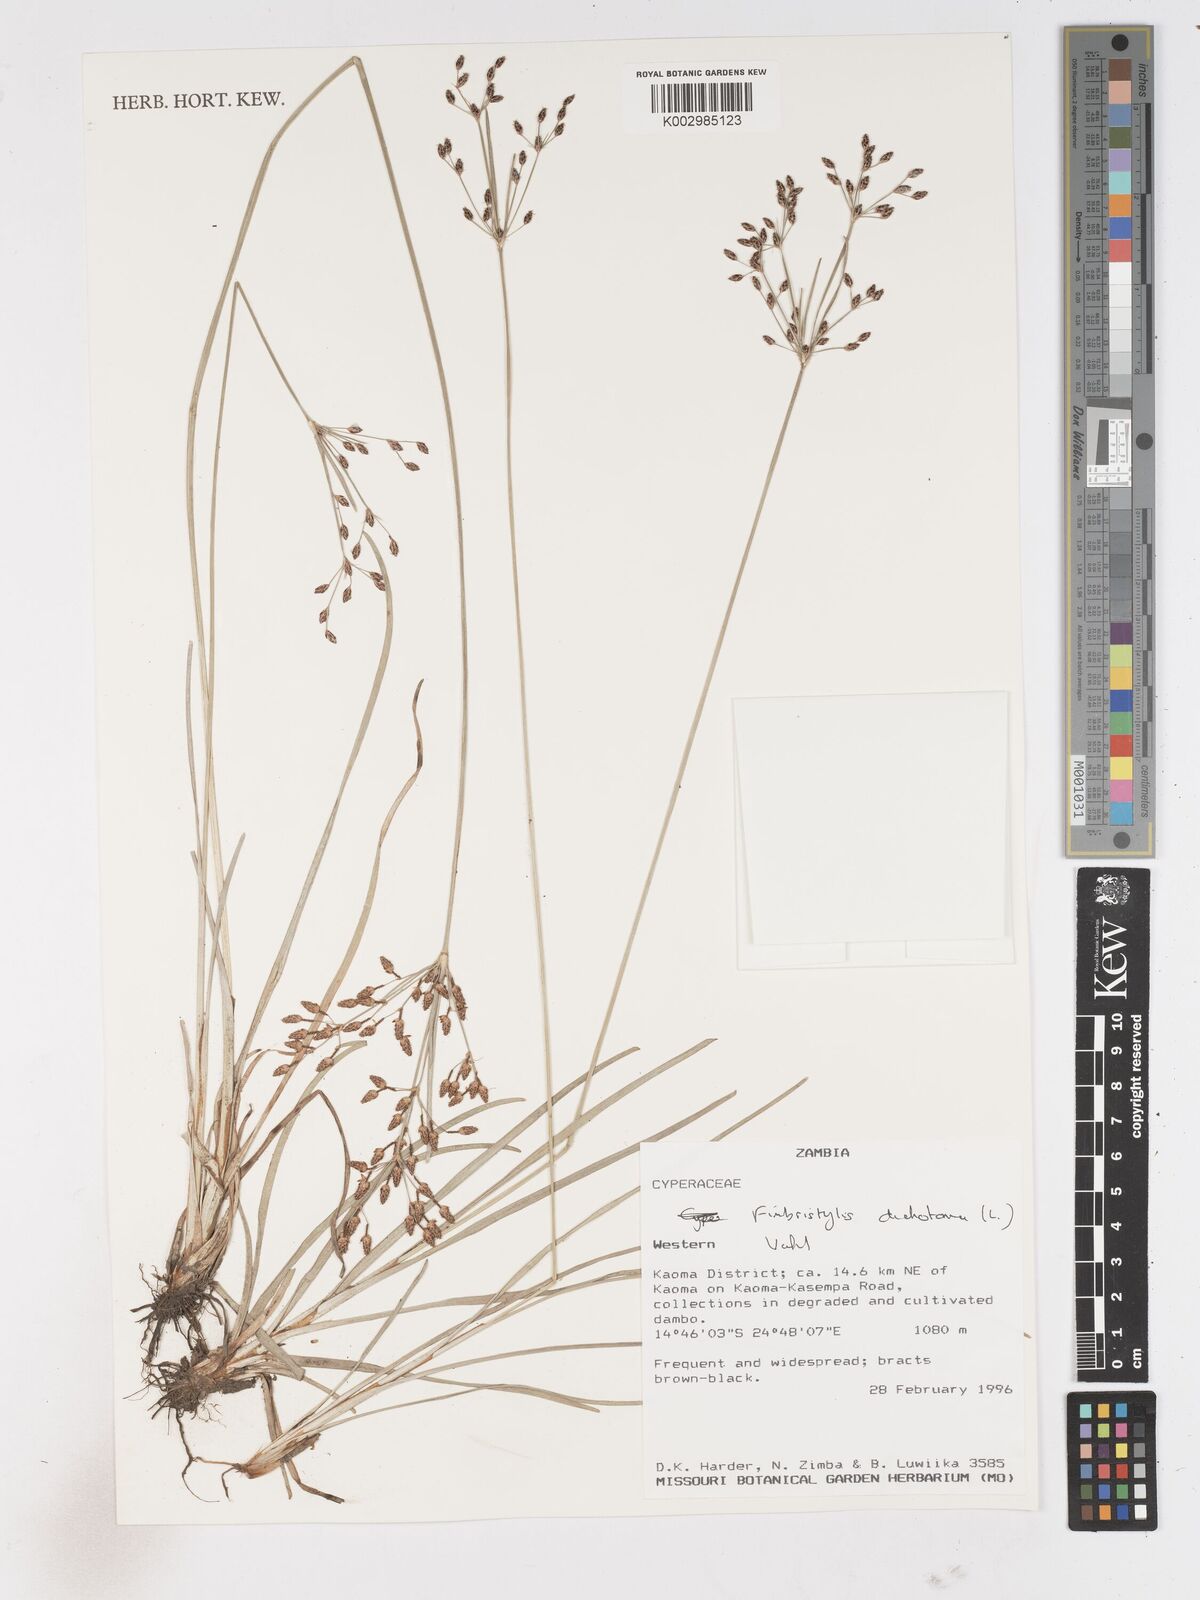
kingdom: Plantae
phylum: Tracheophyta
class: Liliopsida
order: Poales
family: Cyperaceae
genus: Fimbristylis
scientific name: Fimbristylis dichotoma
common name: Forked fimbry
